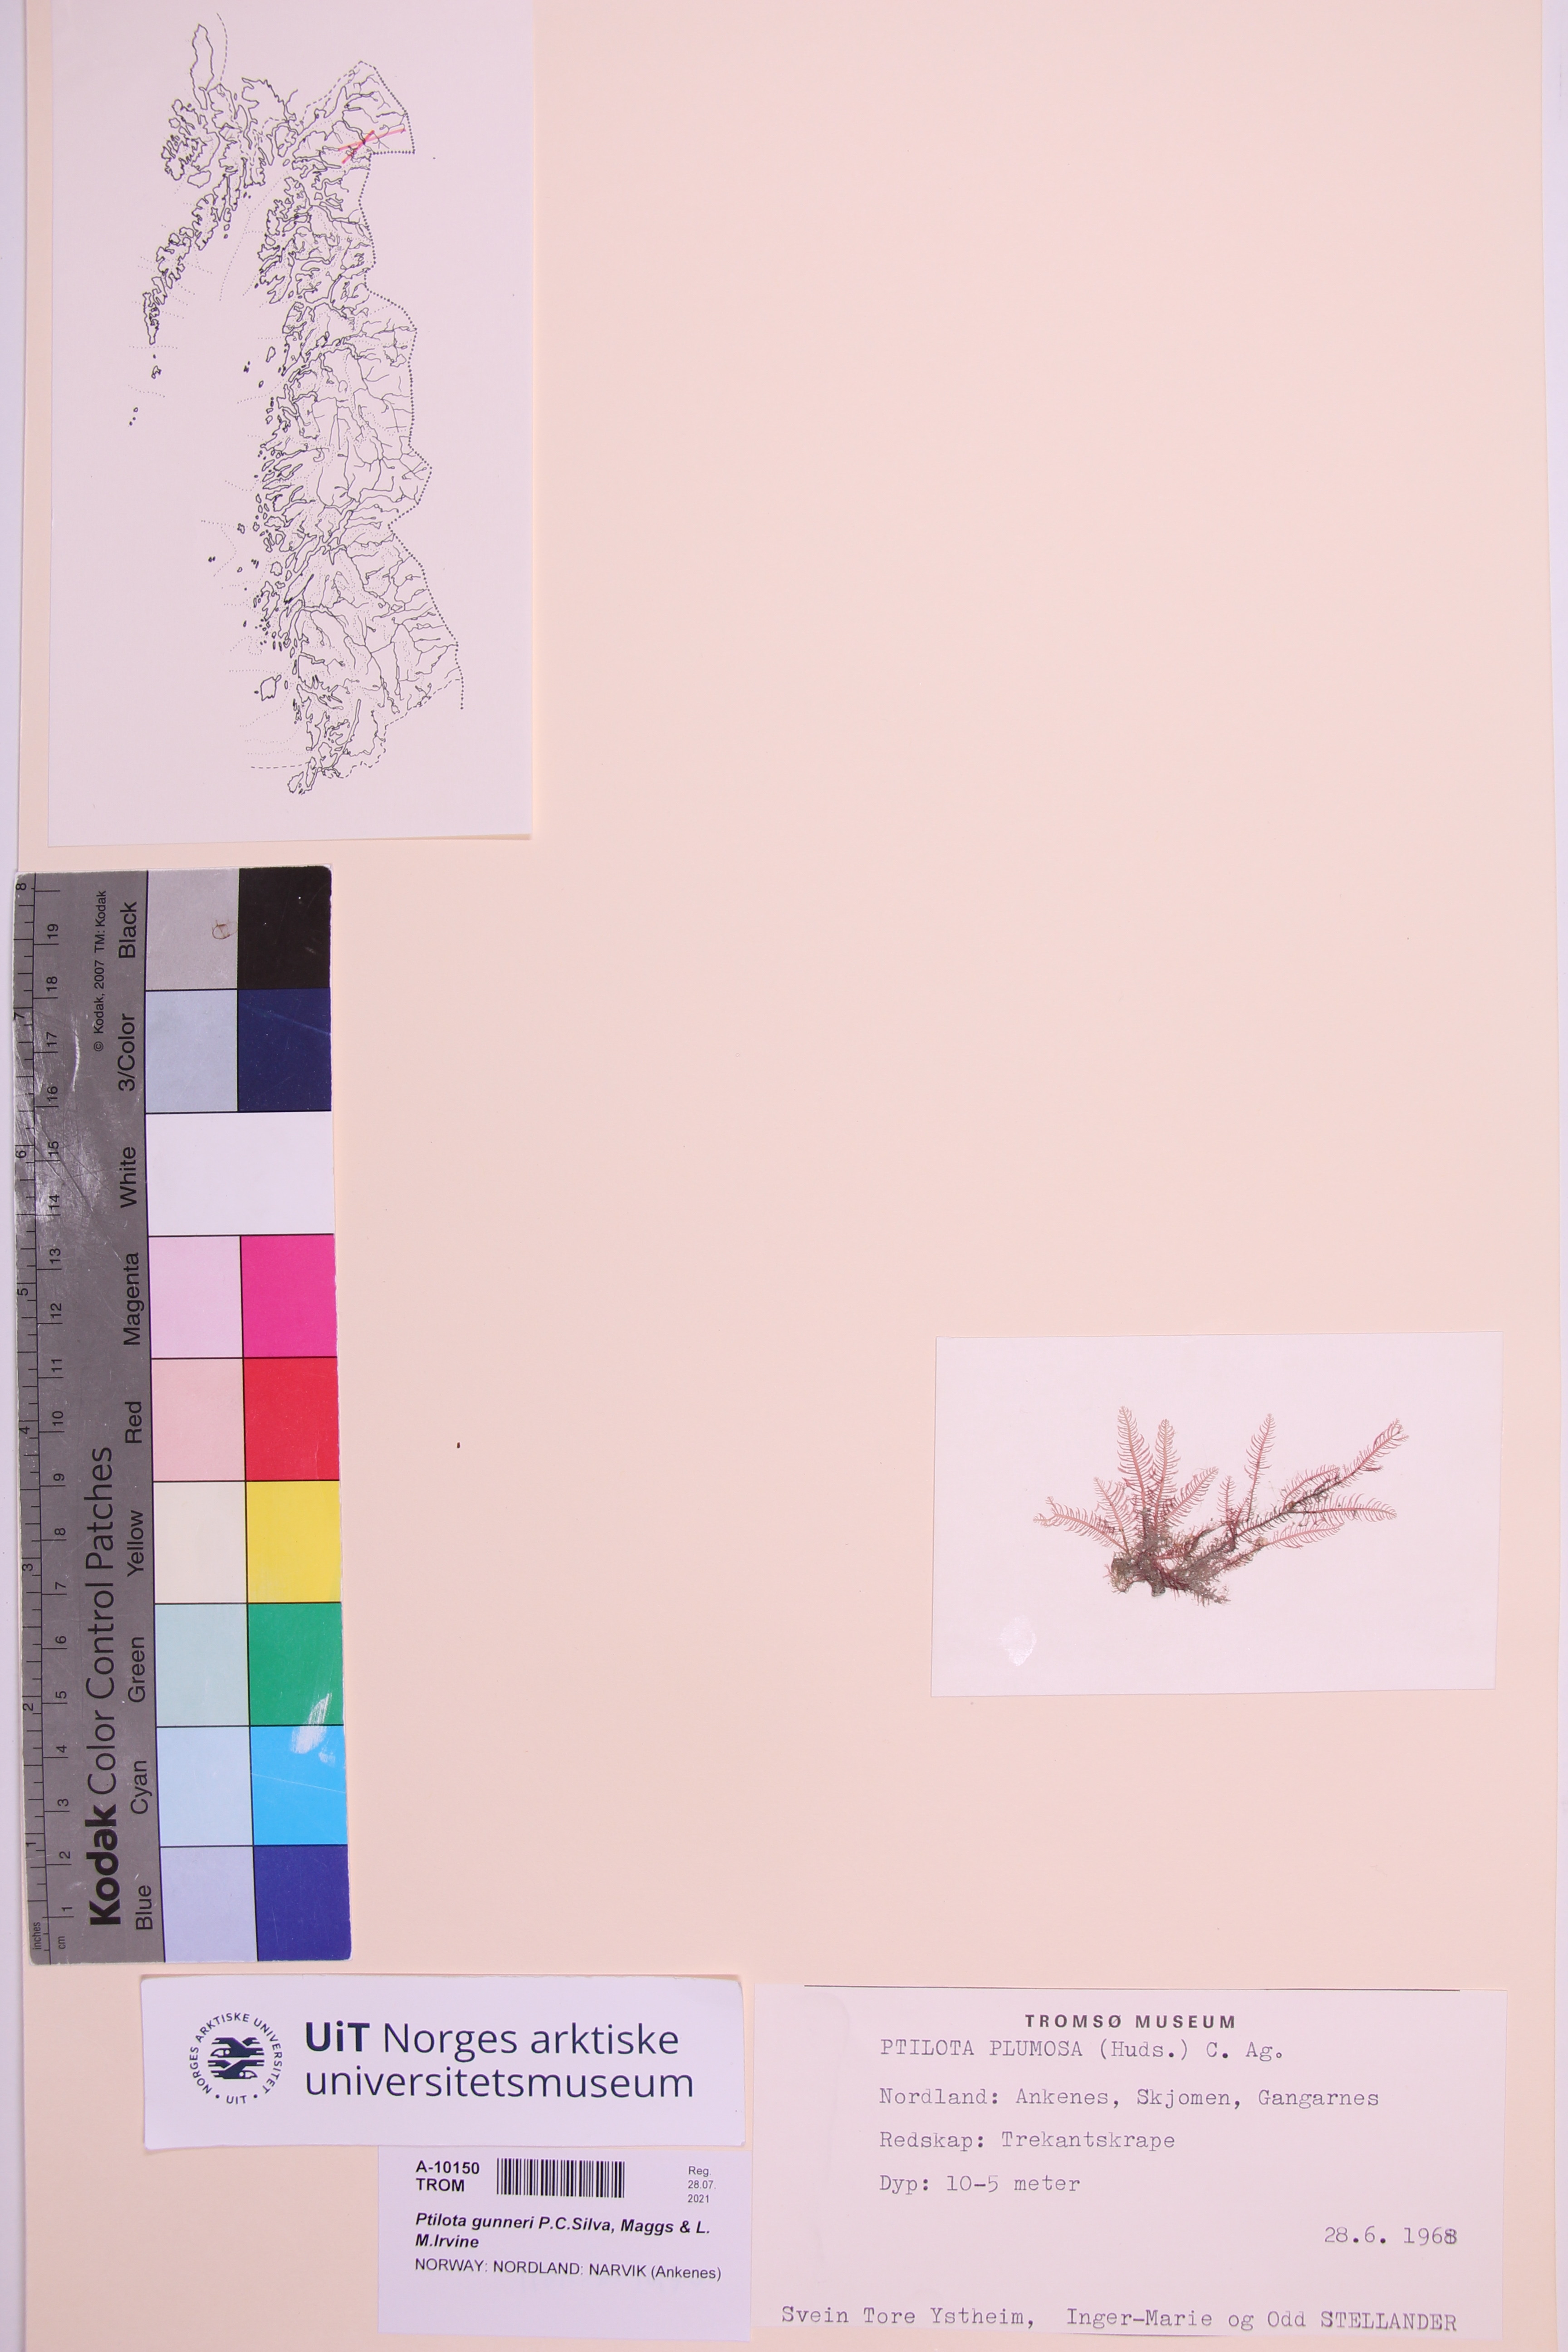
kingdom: Plantae
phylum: Rhodophyta
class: Florideophyceae
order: Ceramiales
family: Wrangeliaceae
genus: Ptilota
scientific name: Ptilota gunneri
